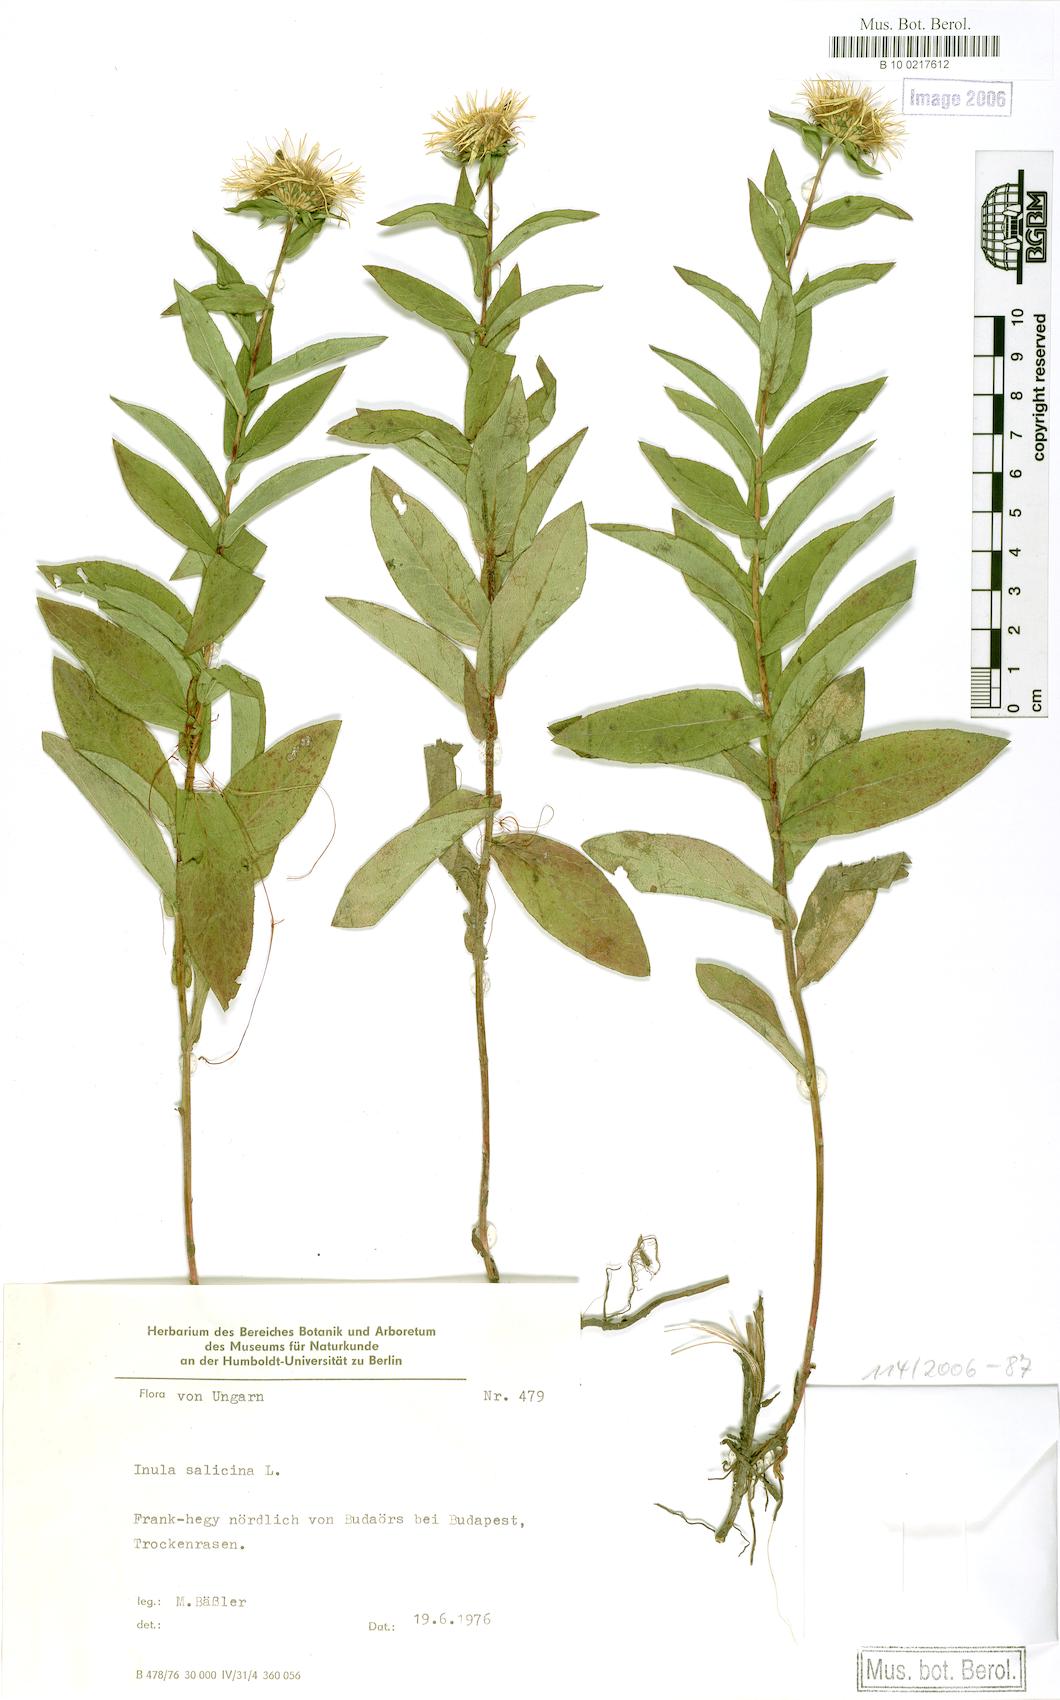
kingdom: Plantae
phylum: Tracheophyta
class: Magnoliopsida
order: Asterales
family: Asteraceae
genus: Pentanema
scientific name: Pentanema salicinum
